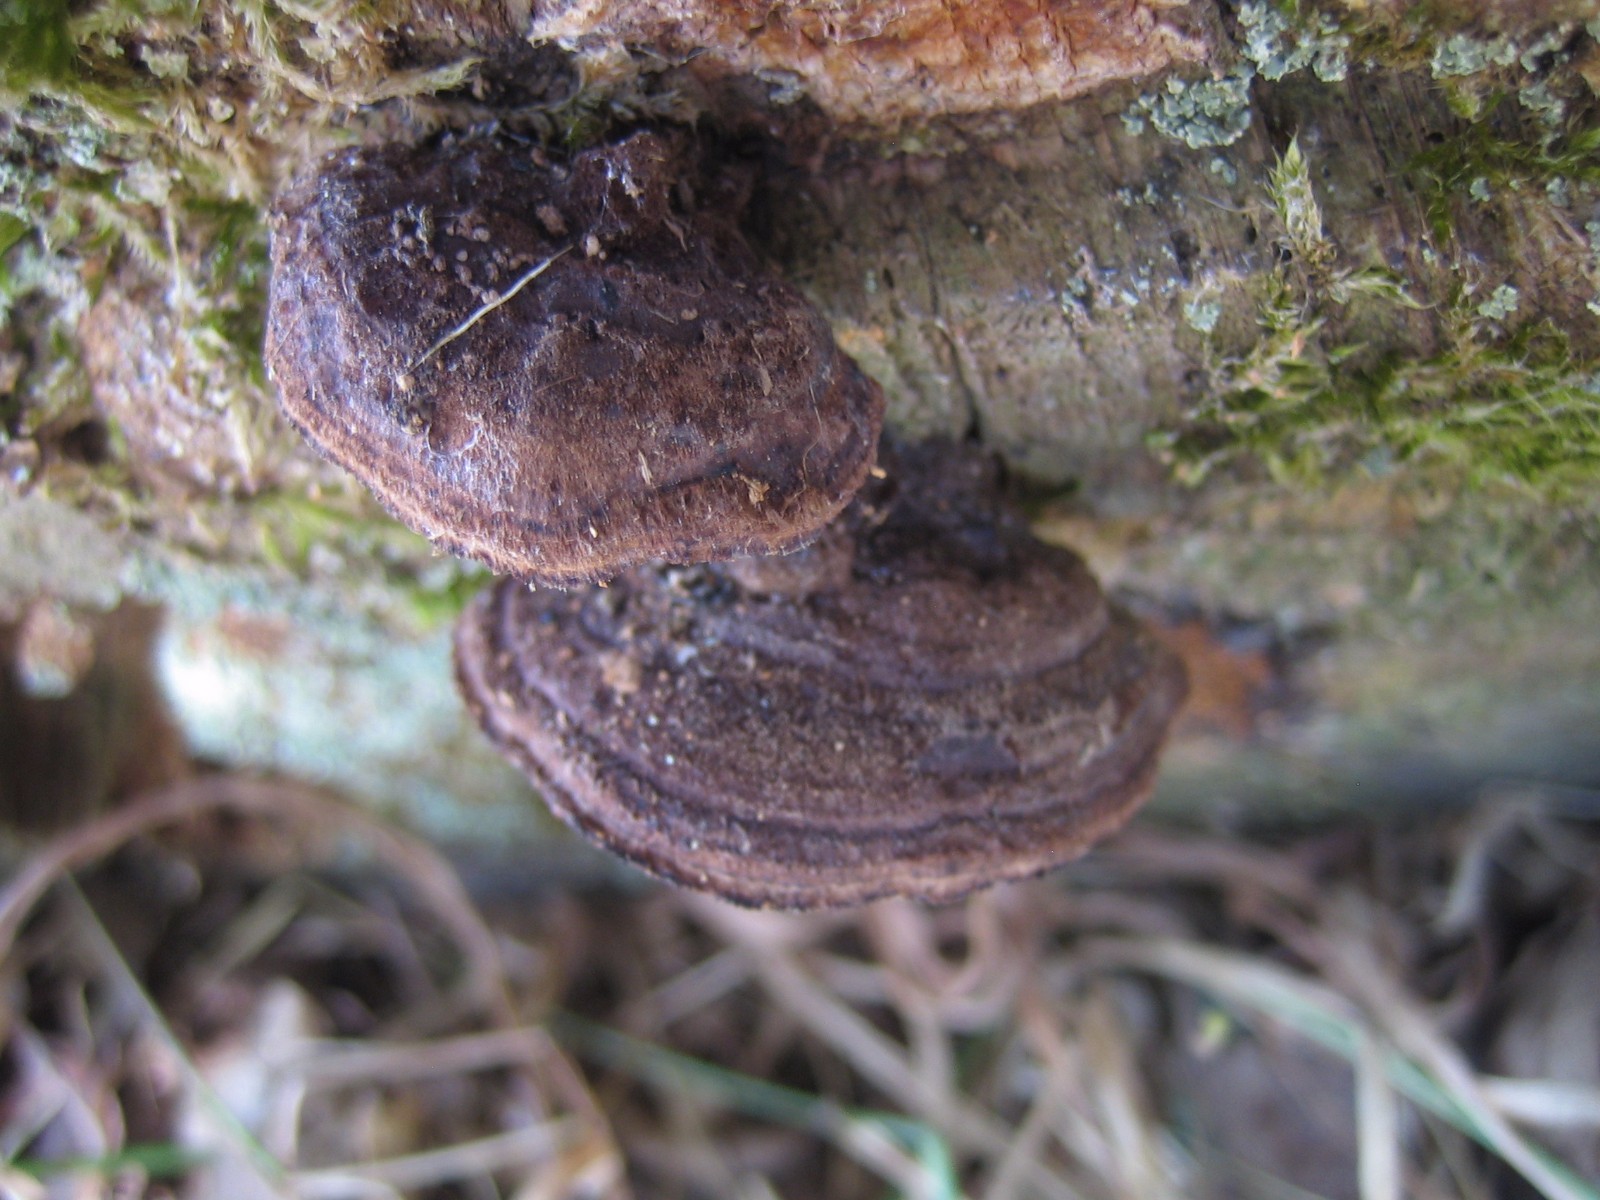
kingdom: Fungi
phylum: Basidiomycota
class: Agaricomycetes
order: Gloeophyllales
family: Gloeophyllaceae
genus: Gloeophyllum
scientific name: Gloeophyllum sepiarium
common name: fyrre-korkhat
